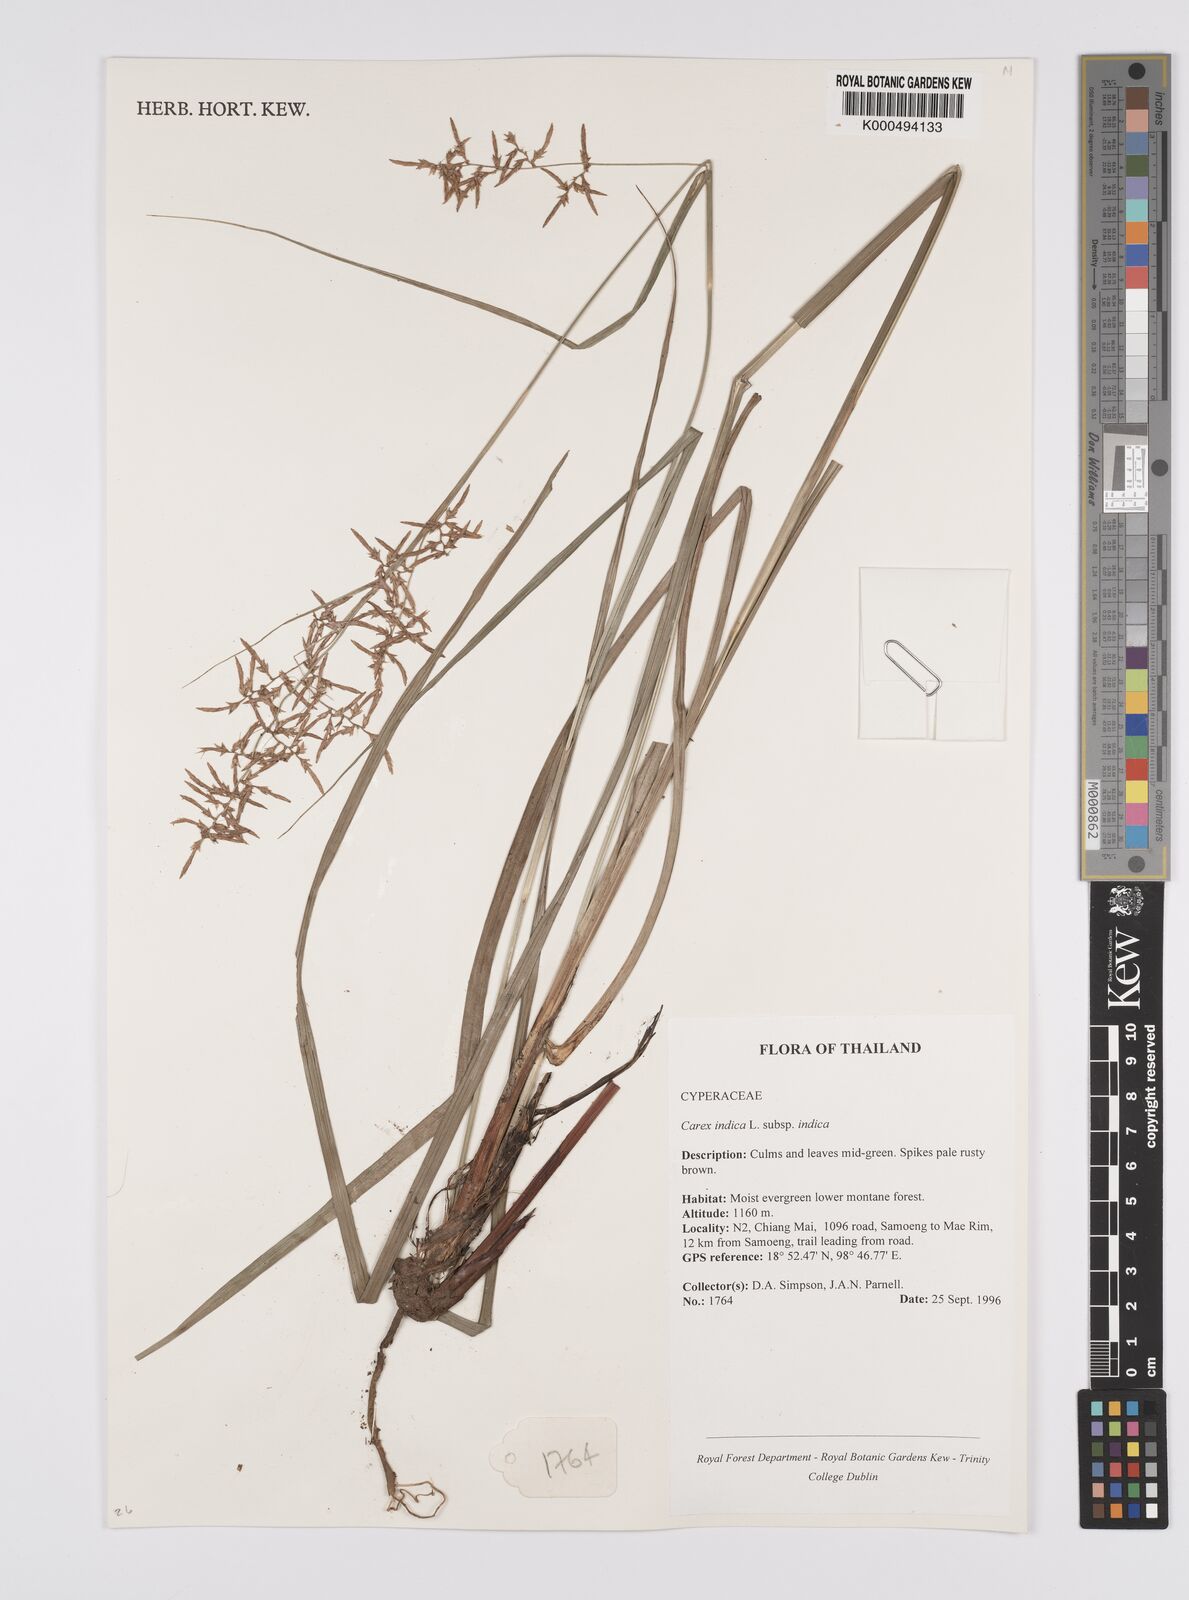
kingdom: Plantae
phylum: Tracheophyta
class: Liliopsida
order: Poales
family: Cyperaceae
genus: Carex
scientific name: Carex indica
